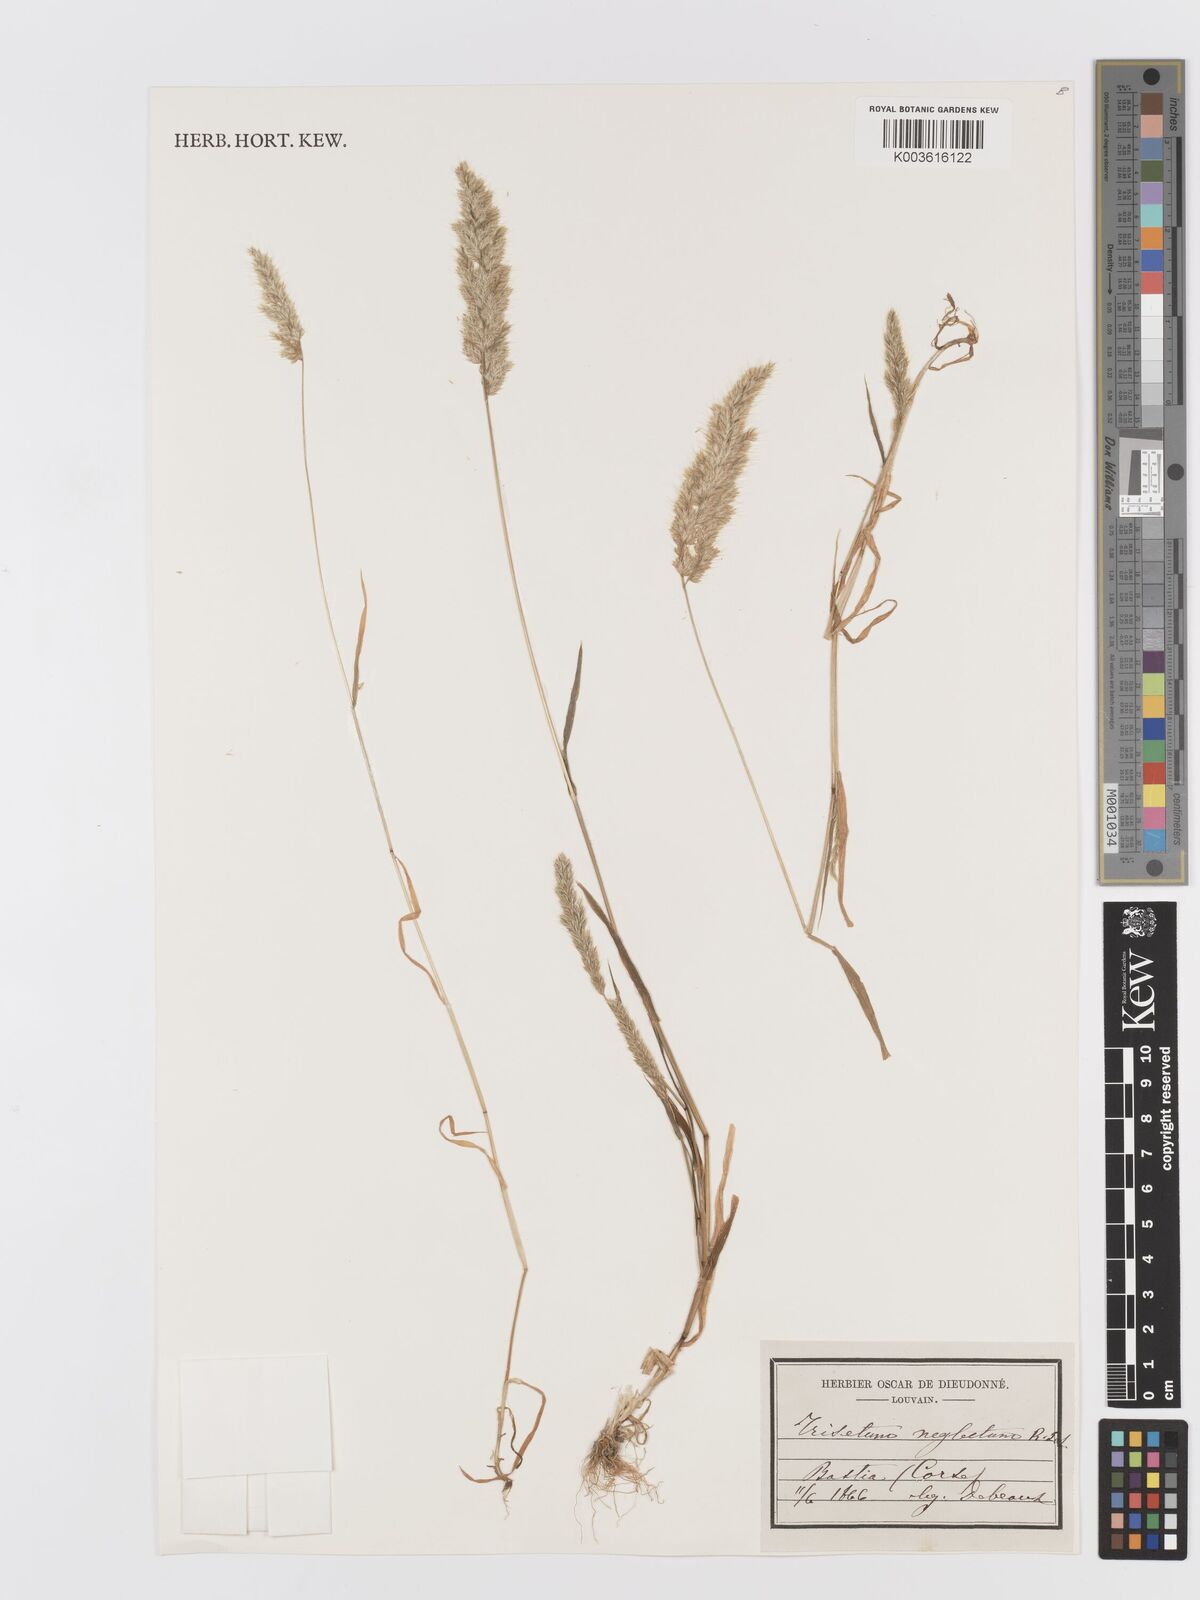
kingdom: Plantae
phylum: Tracheophyta
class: Liliopsida
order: Poales
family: Poaceae
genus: Trisetaria
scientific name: Trisetaria panicea
